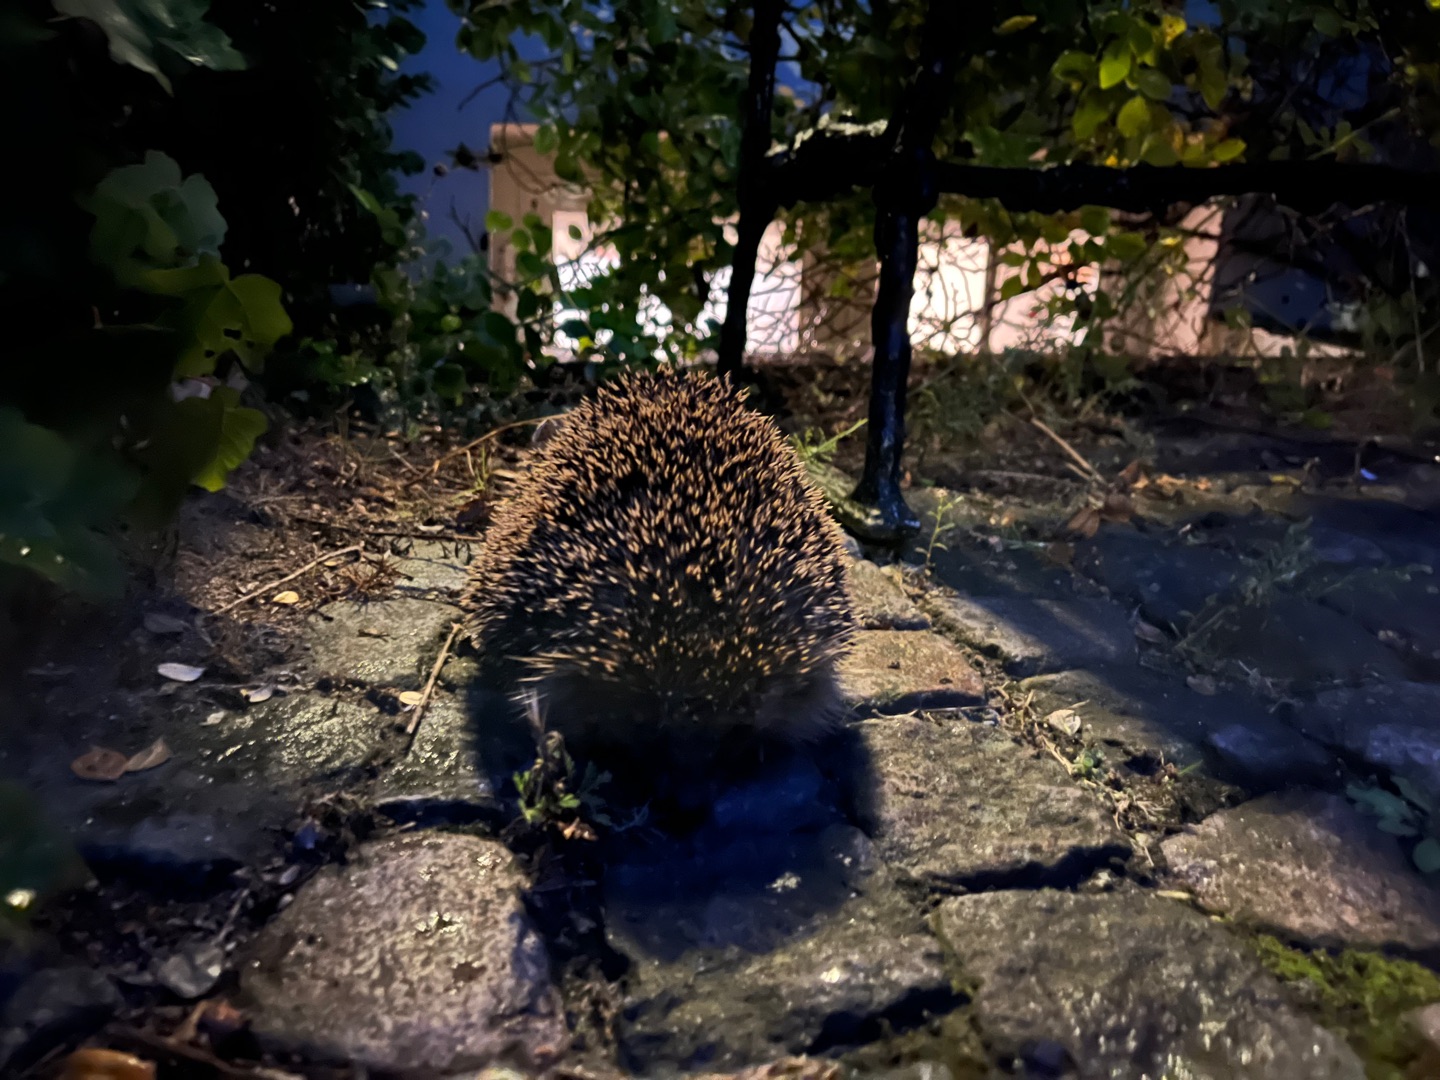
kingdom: Animalia
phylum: Chordata
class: Mammalia
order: Erinaceomorpha
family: Erinaceidae
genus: Erinaceus
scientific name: Erinaceus europaeus
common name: Pindsvin
